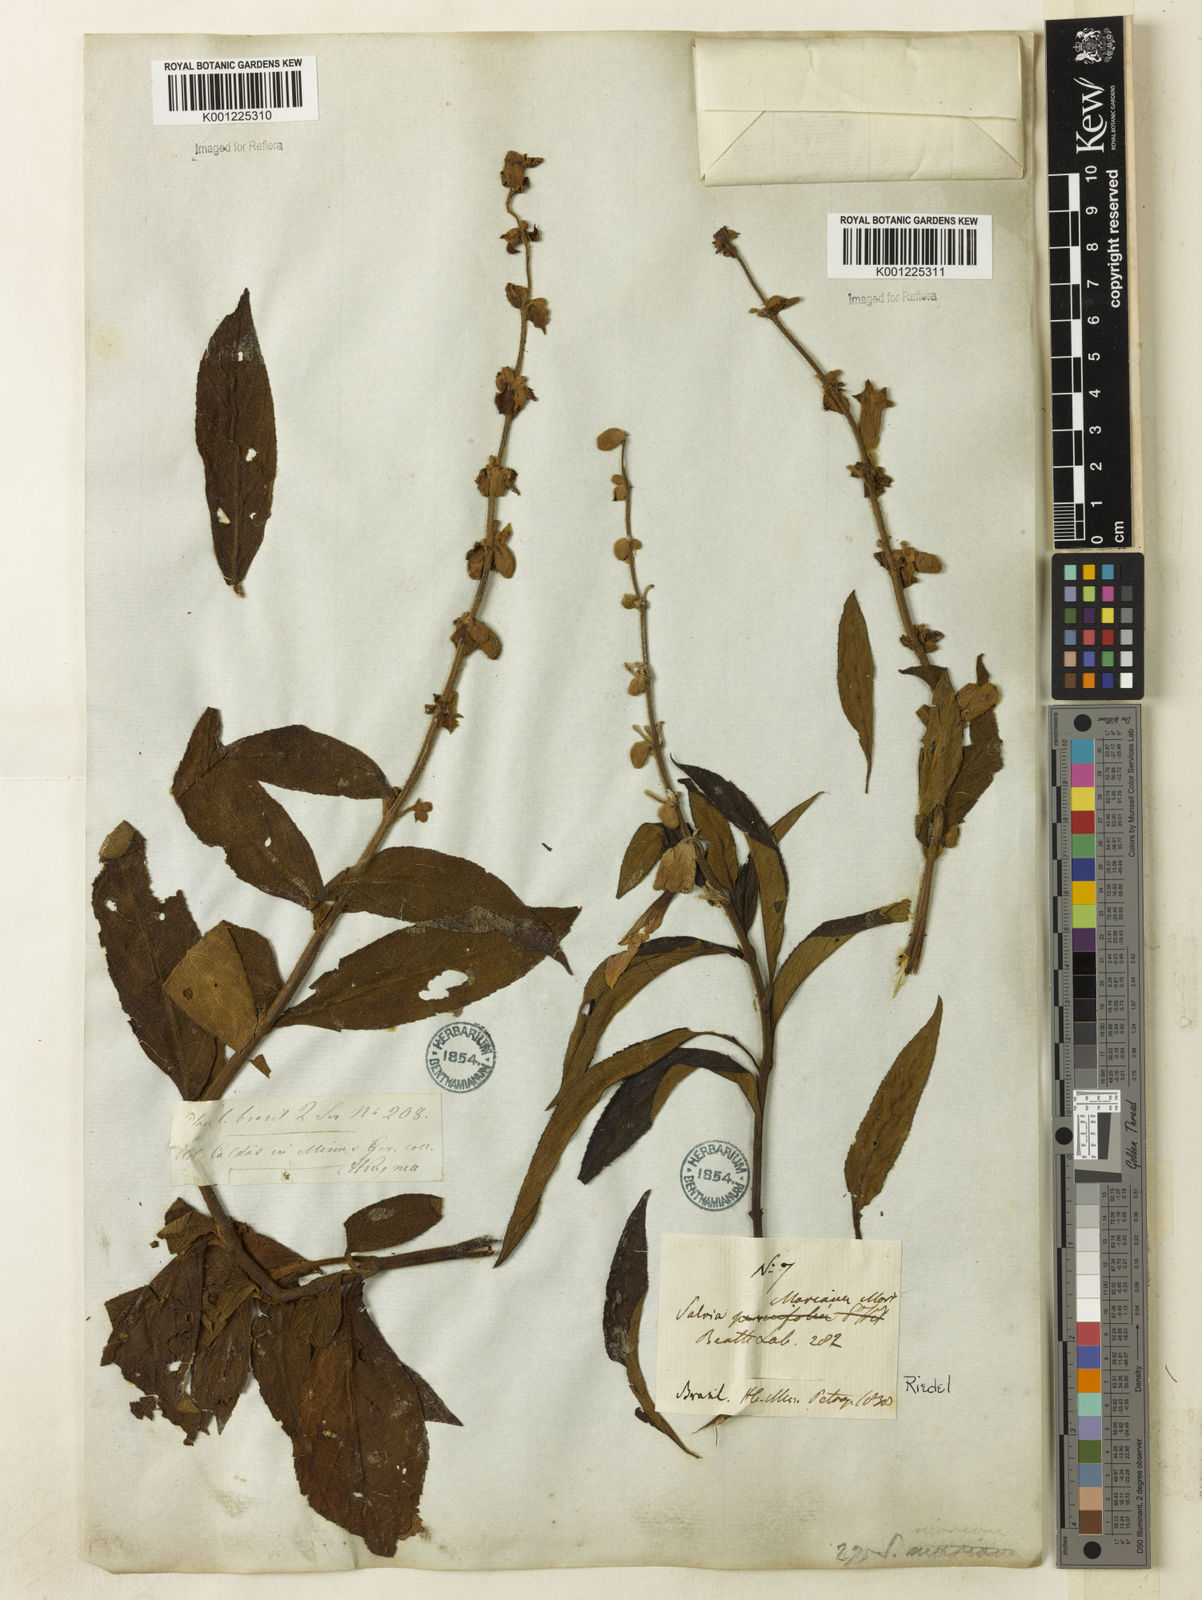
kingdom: Plantae
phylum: Tracheophyta
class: Magnoliopsida
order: Lamiales
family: Lamiaceae
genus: Salvia
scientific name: Salvia macrocalyx
